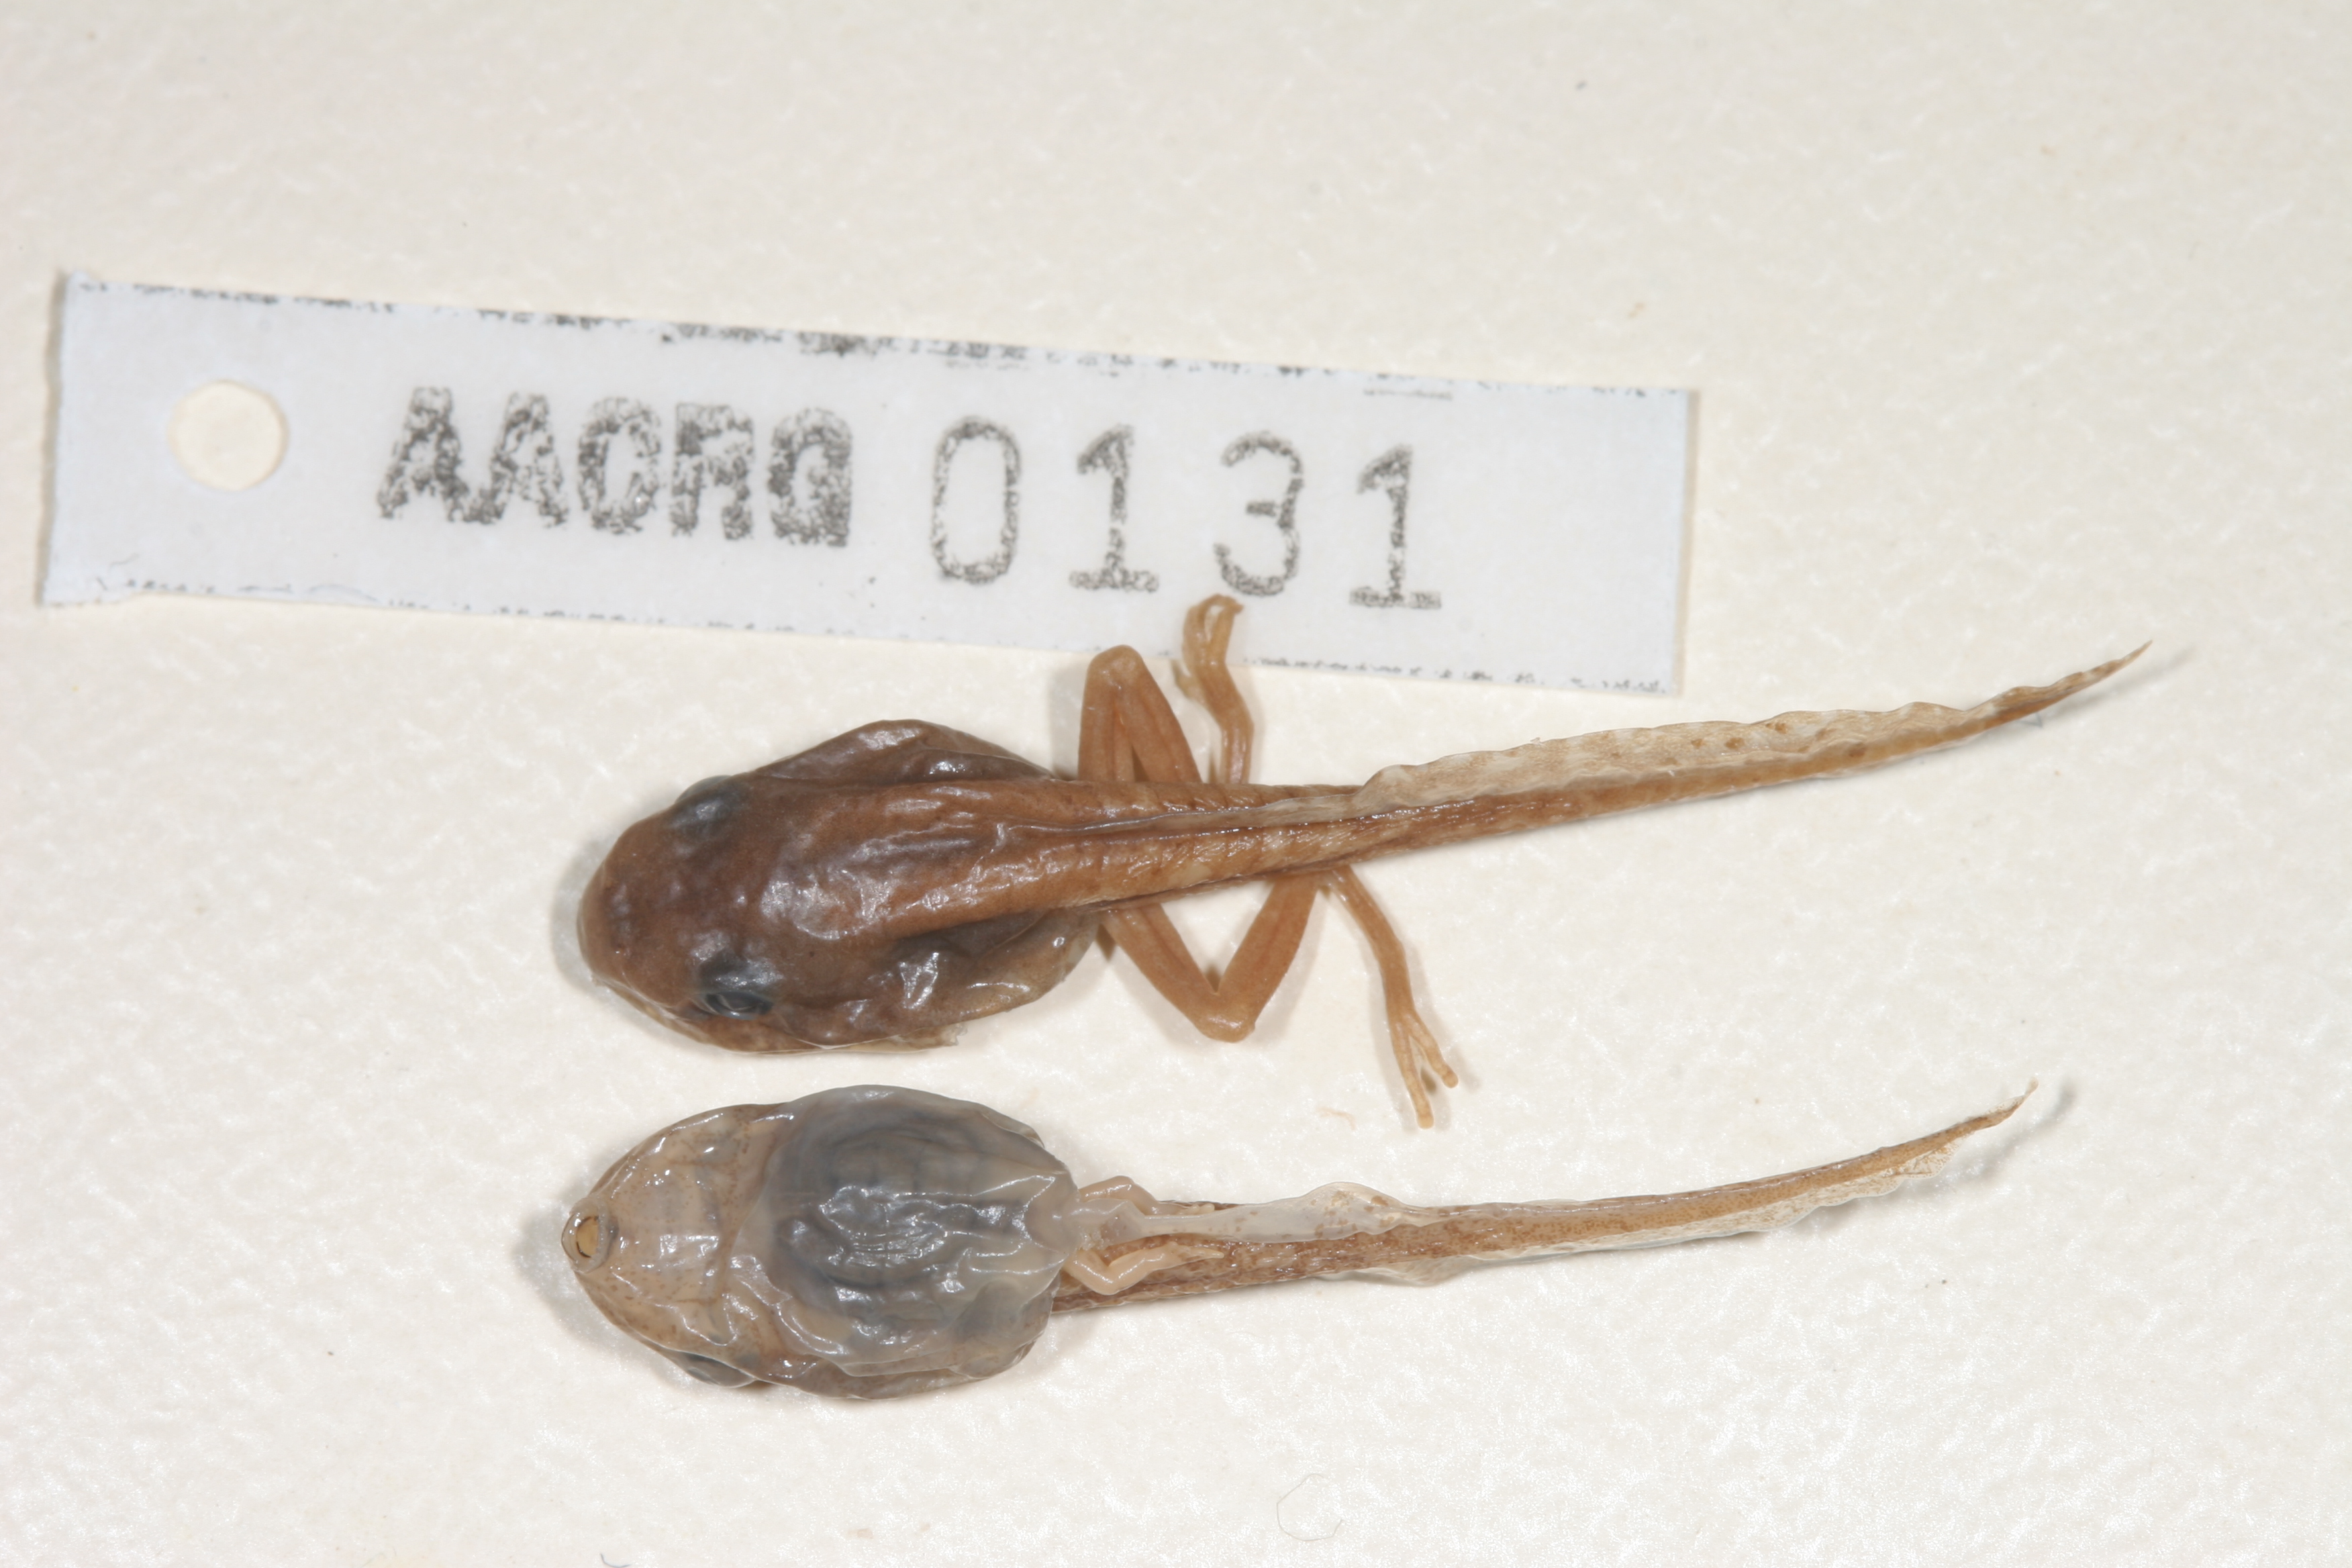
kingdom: Animalia
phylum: Chordata
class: Amphibia
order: Anura
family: Hyperoliidae
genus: Hyperolius
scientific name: Hyperolius semidiscus
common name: Yellow-striped reed frog
